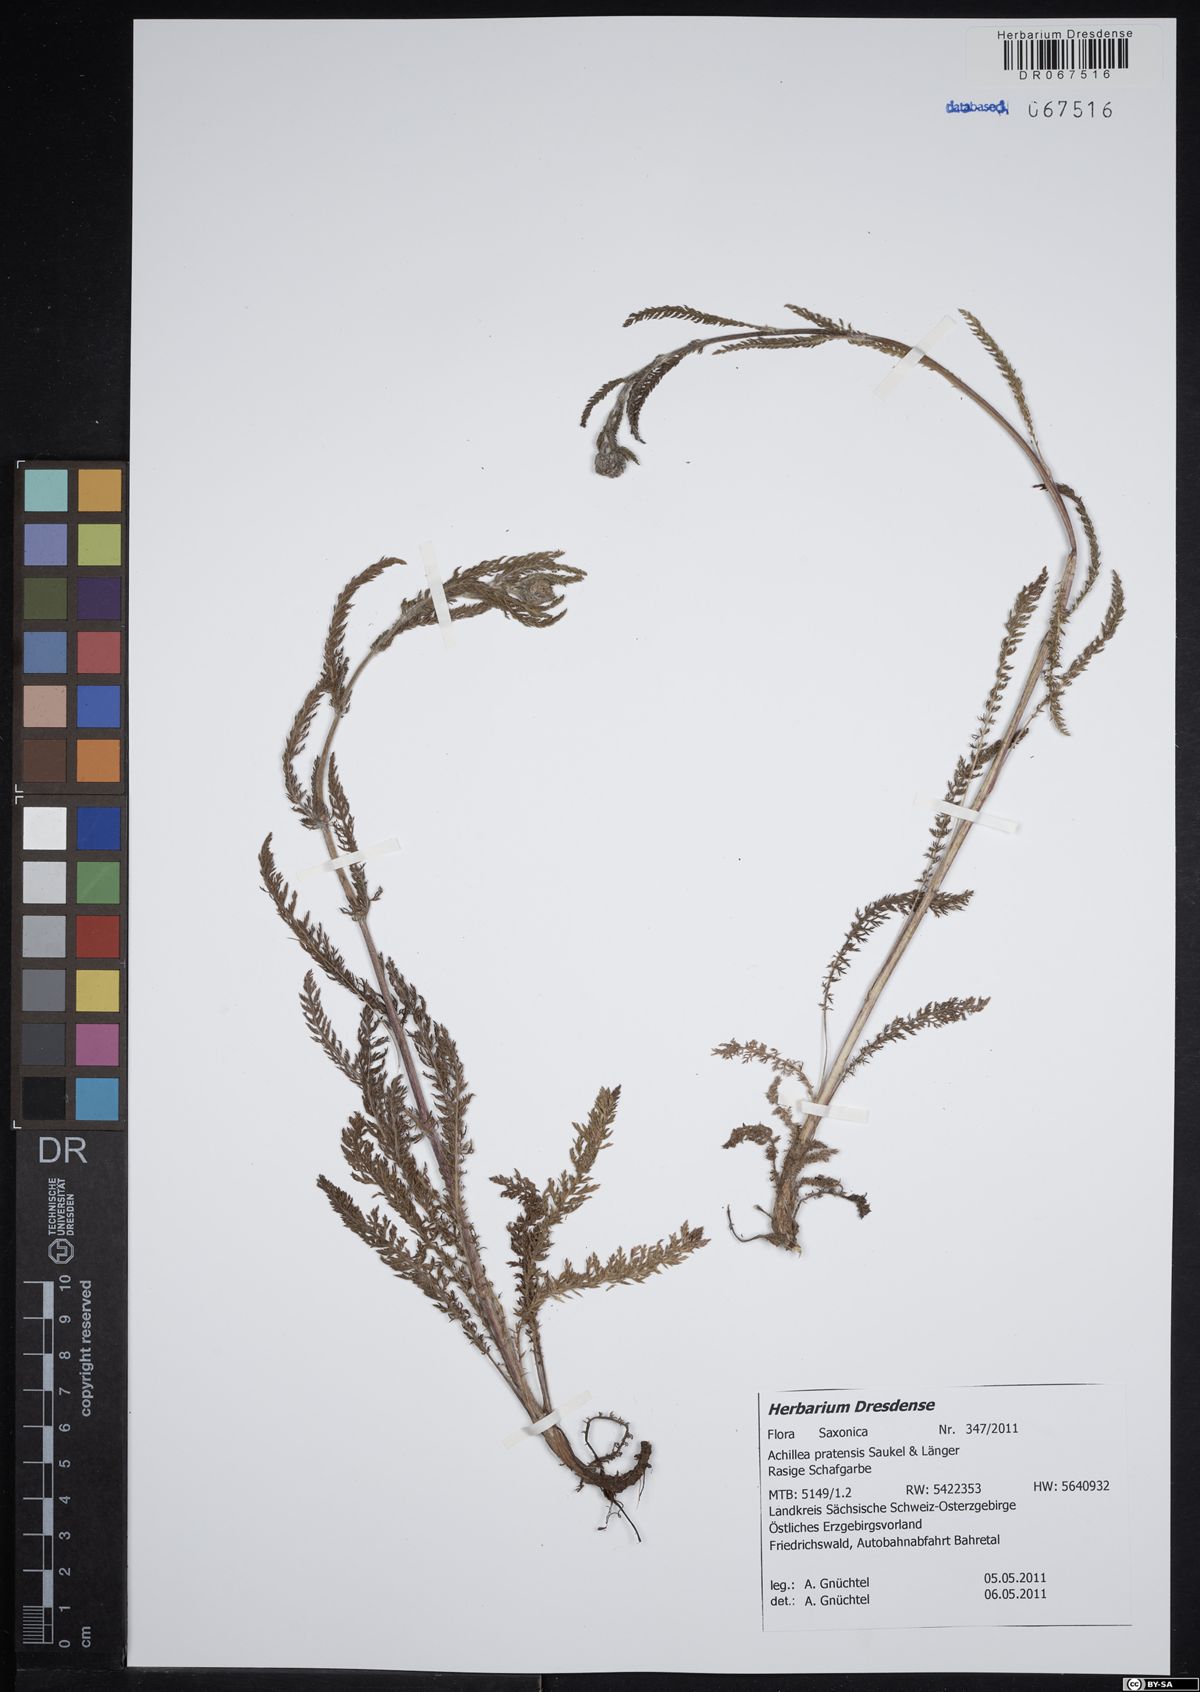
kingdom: Plantae
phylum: Tracheophyta
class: Magnoliopsida
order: Asterales
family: Asteraceae
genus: Achillea
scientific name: Achillea pratensis
